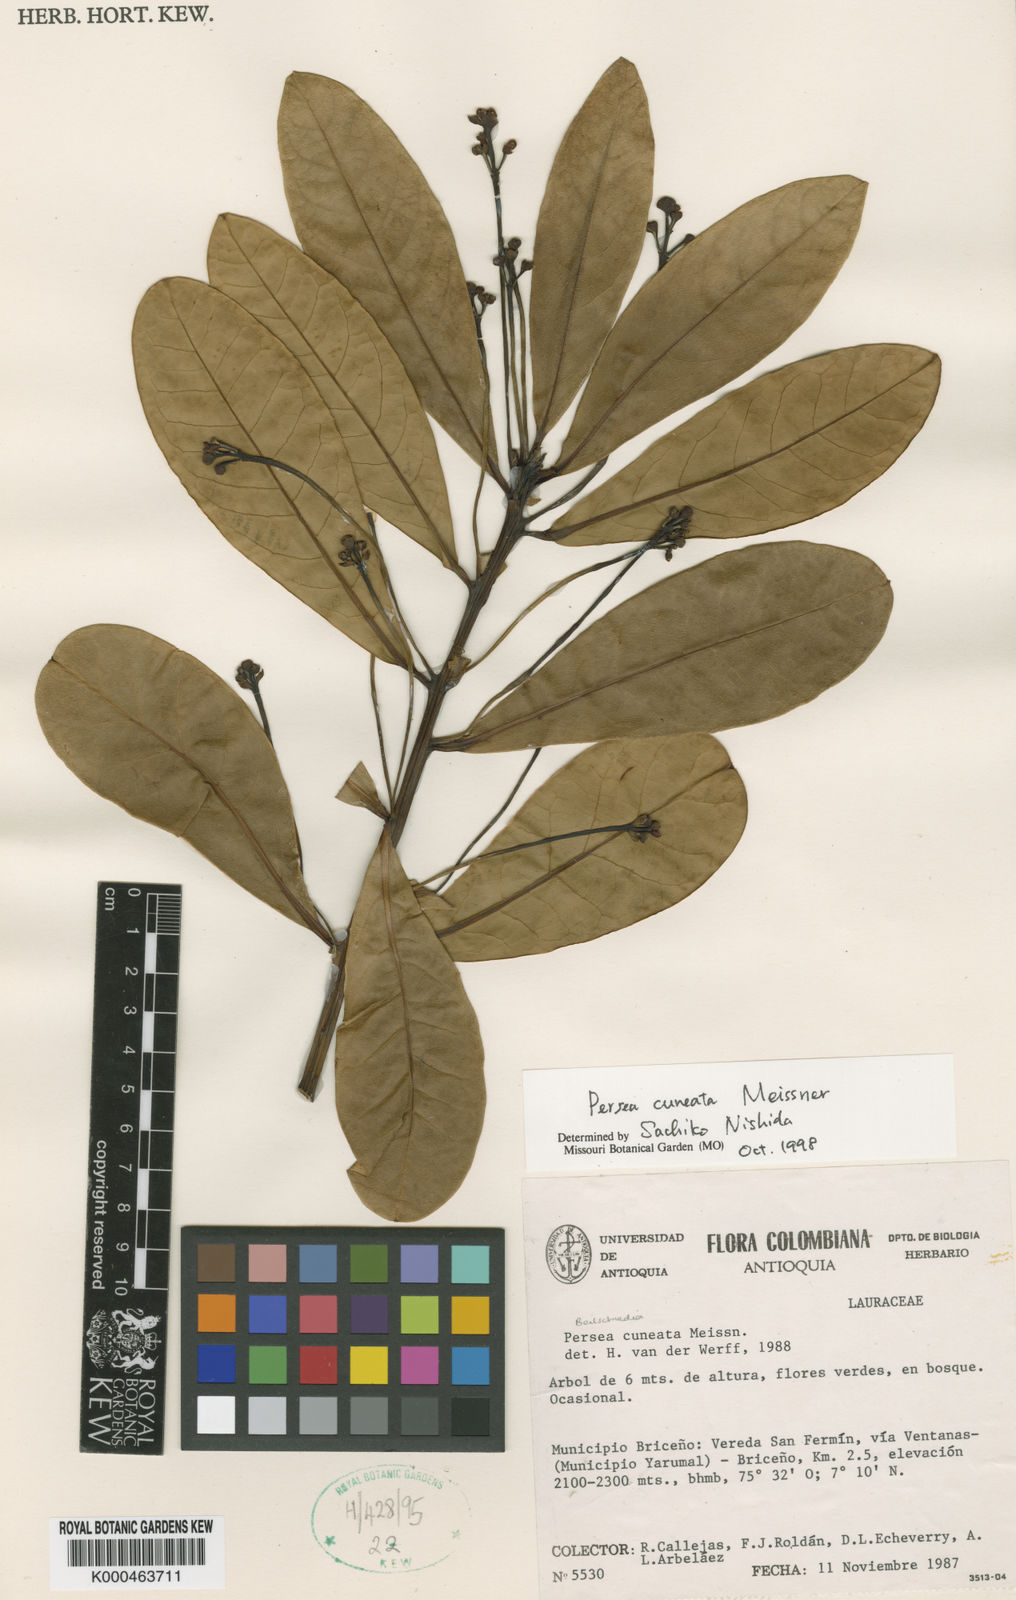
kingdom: Plantae
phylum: Tracheophyta
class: Magnoliopsida
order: Laurales
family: Lauraceae
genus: Persea
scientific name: Persea cuneata
